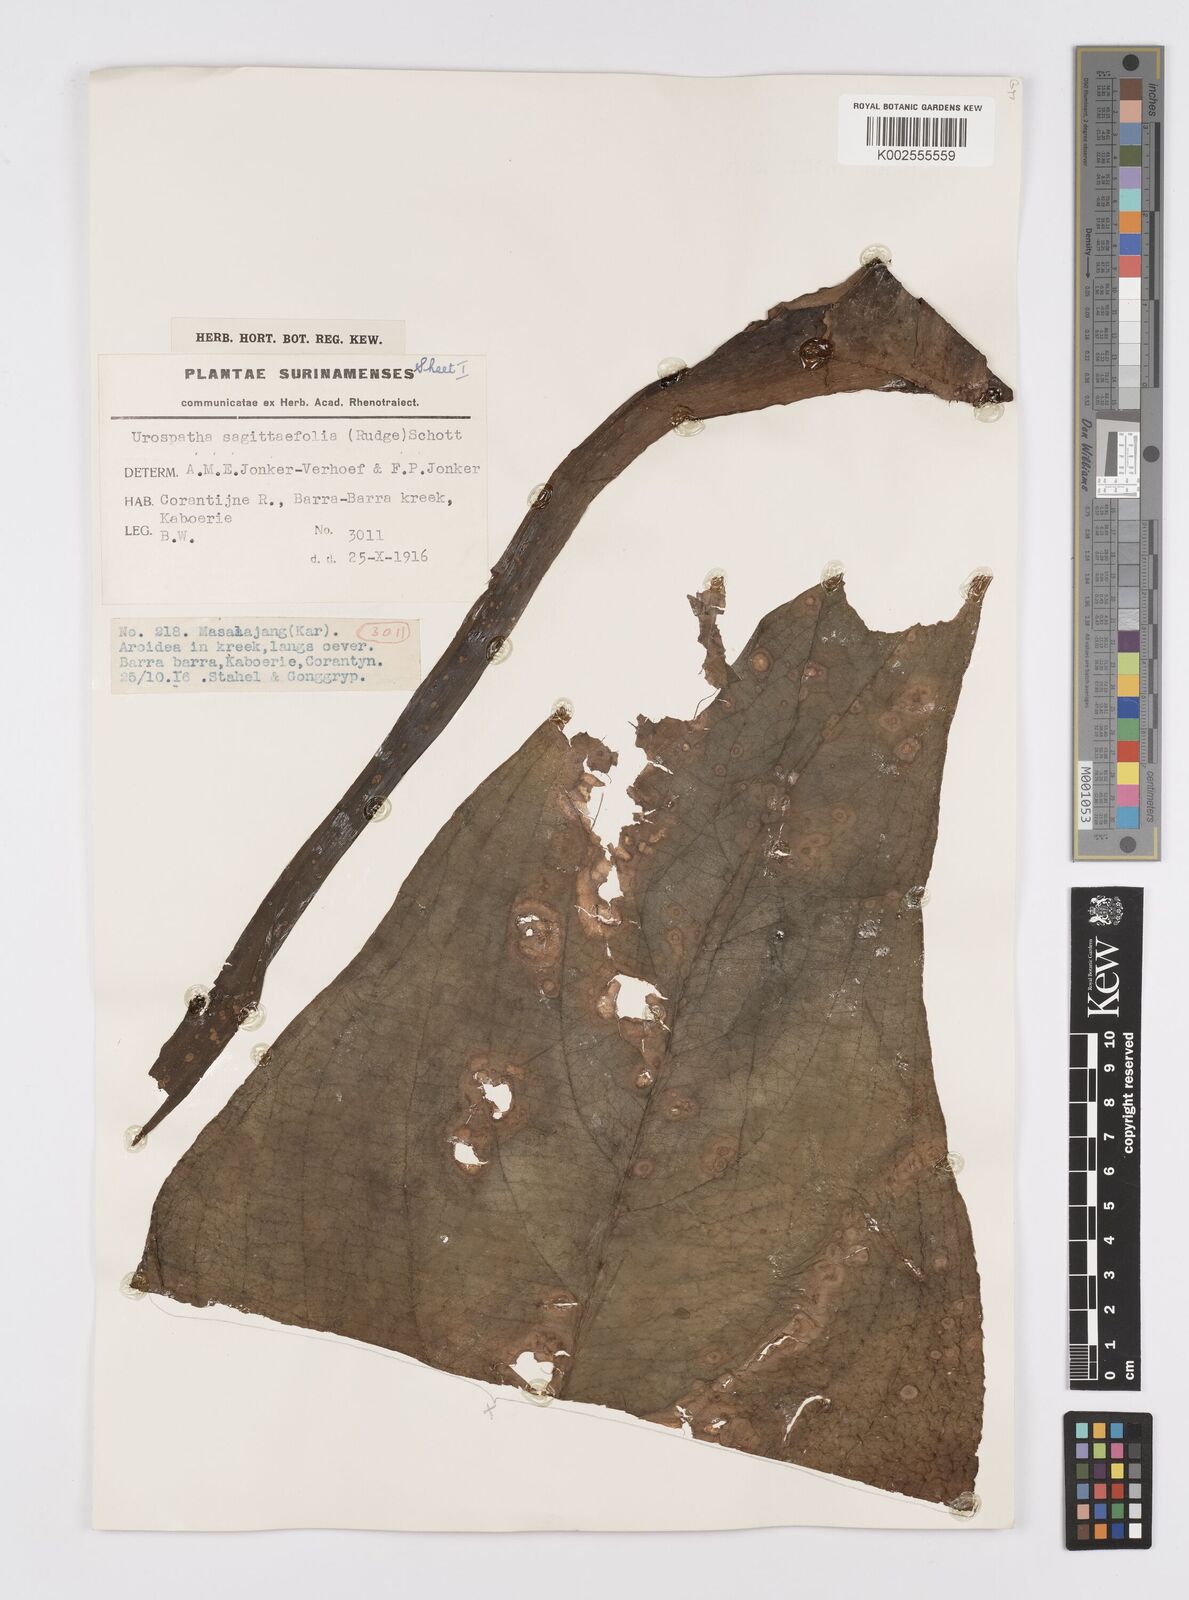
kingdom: Plantae
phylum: Tracheophyta
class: Liliopsida
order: Alismatales
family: Araceae
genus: Urospatha
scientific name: Urospatha sagittifolia
